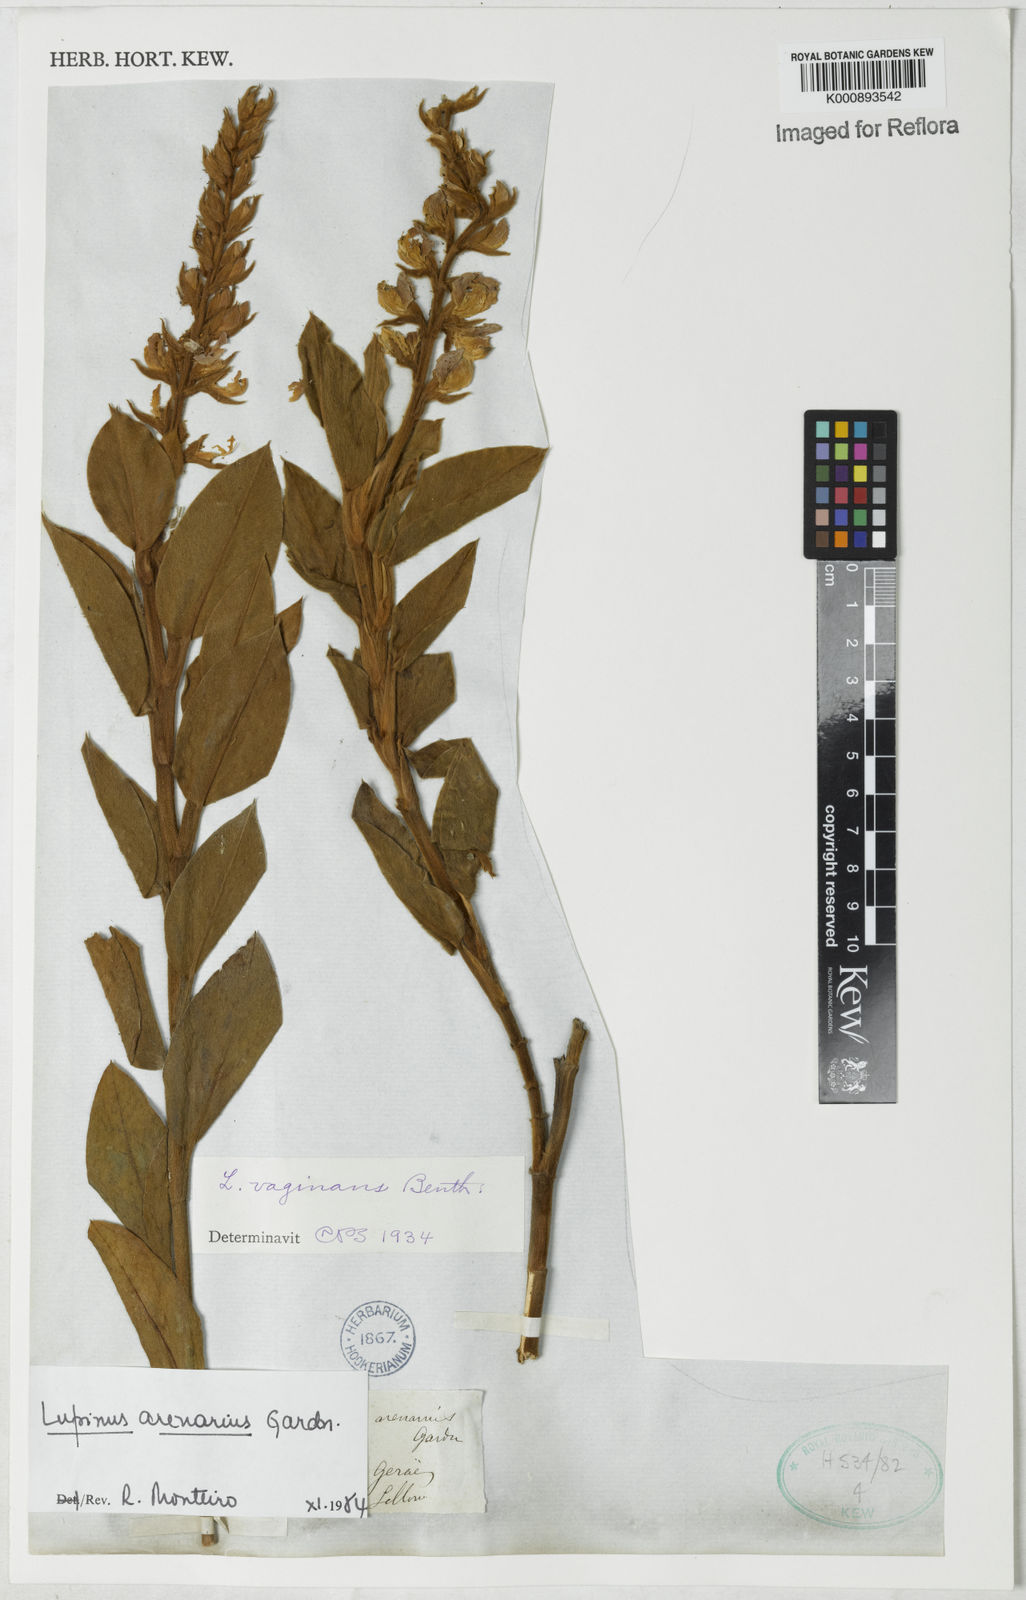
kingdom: Plantae
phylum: Tracheophyta
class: Magnoliopsida
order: Fabales
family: Fabaceae
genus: Lupinus
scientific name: Lupinus arenarius
